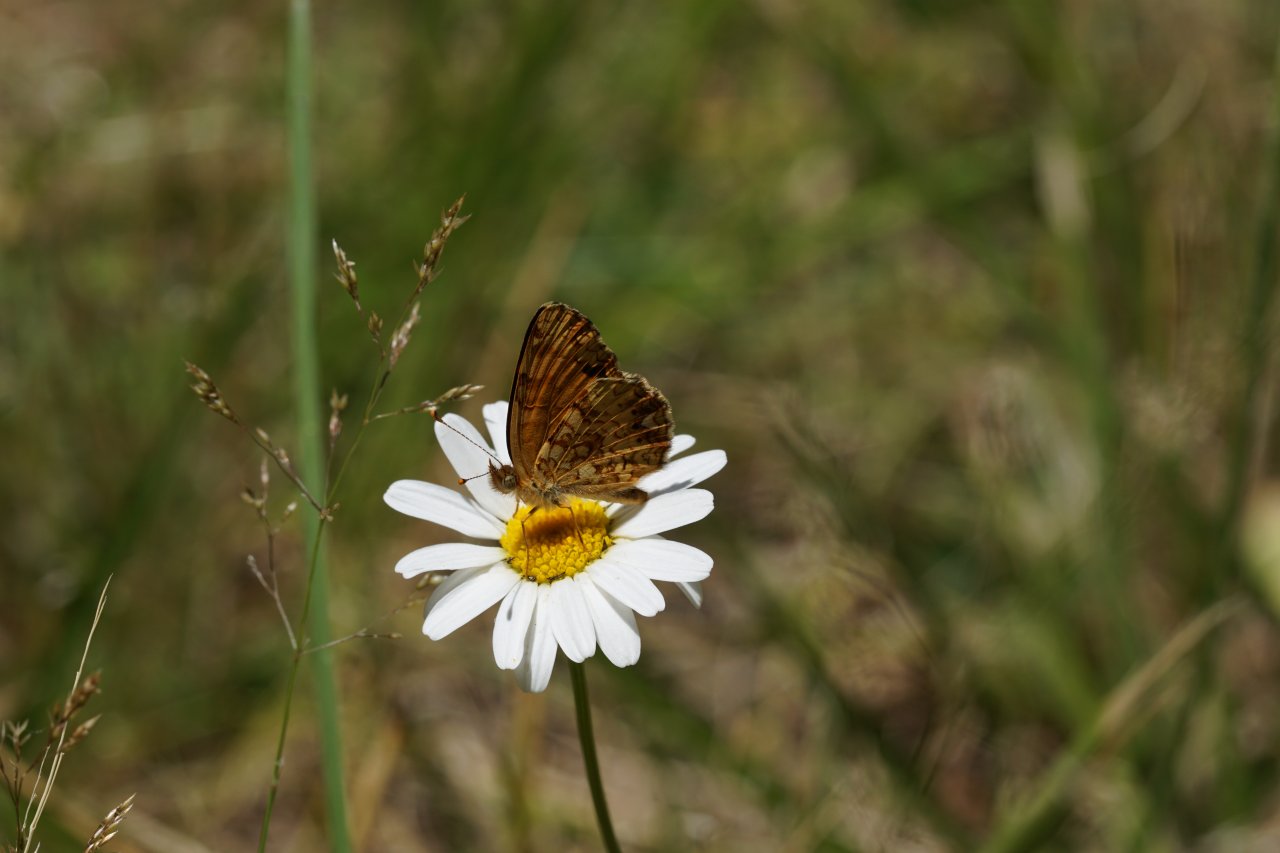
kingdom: Animalia
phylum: Arthropoda
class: Insecta
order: Lepidoptera
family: Nymphalidae
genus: Eresia
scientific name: Eresia aveyrona
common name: Mylitta Crescent
